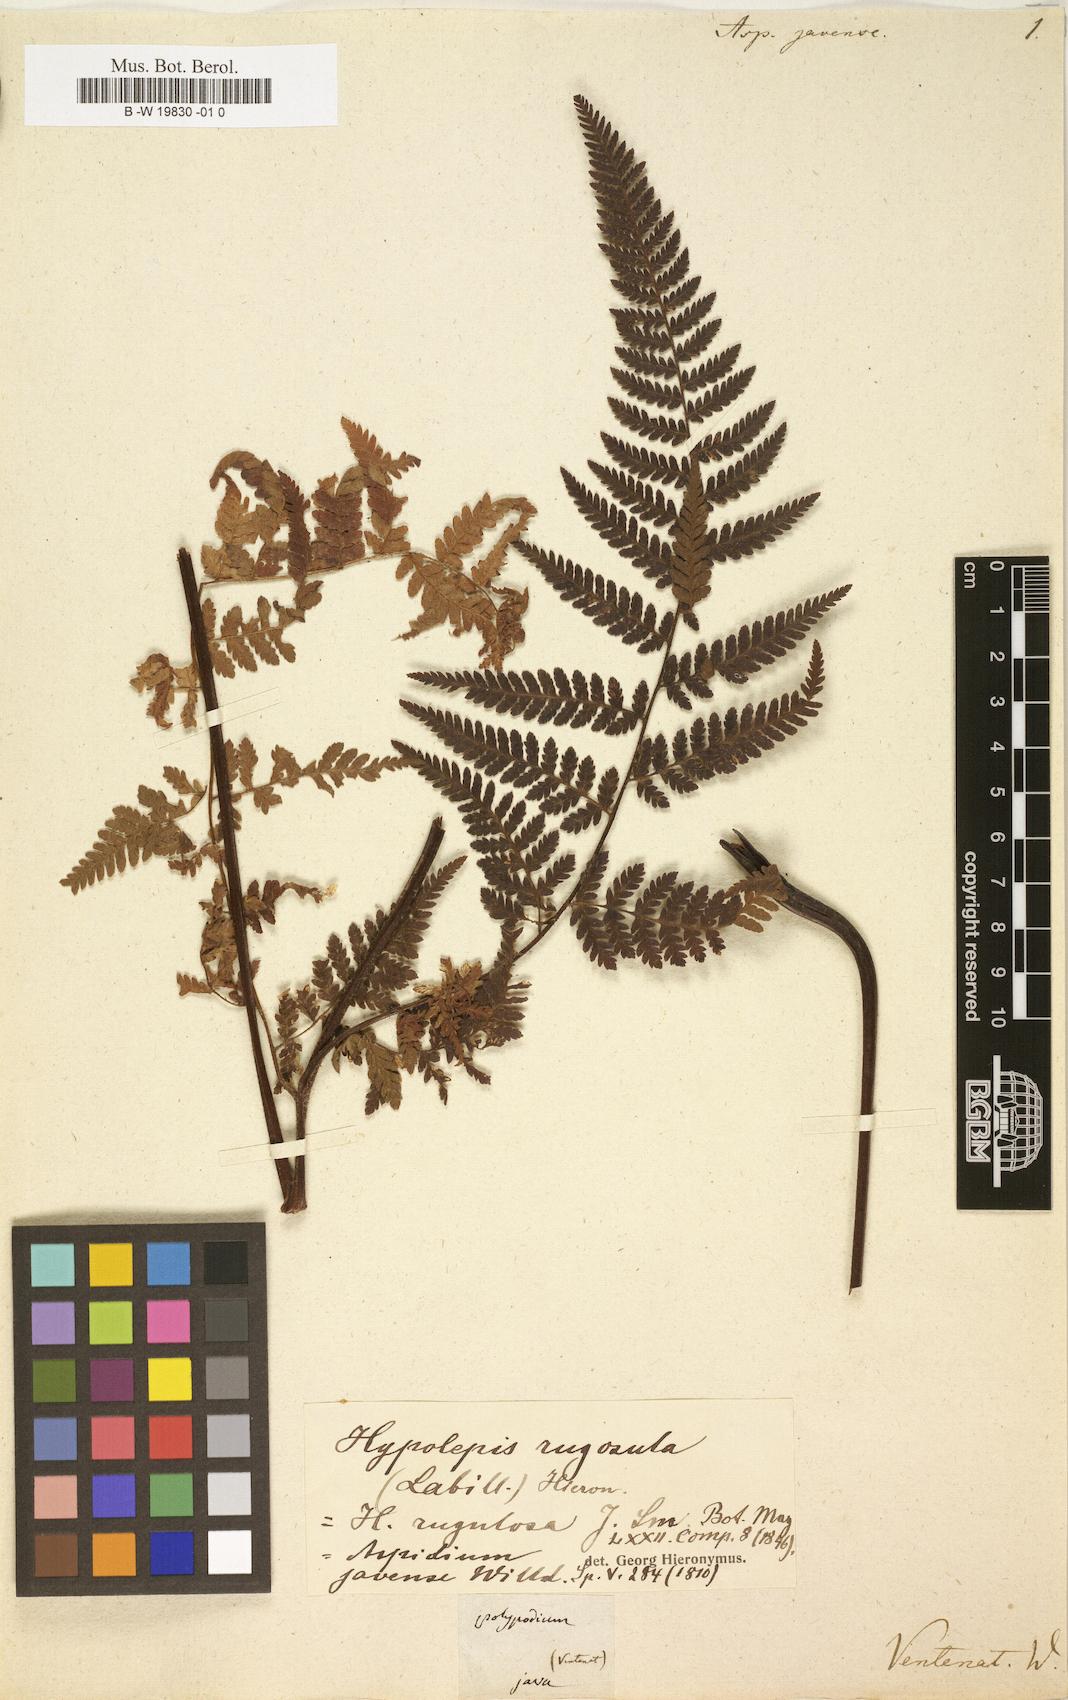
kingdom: Plantae
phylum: Tracheophyta
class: Polypodiopsida
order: Polypodiales
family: Dennstaedtiaceae
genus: Hypolepis
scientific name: Hypolepis alpina
